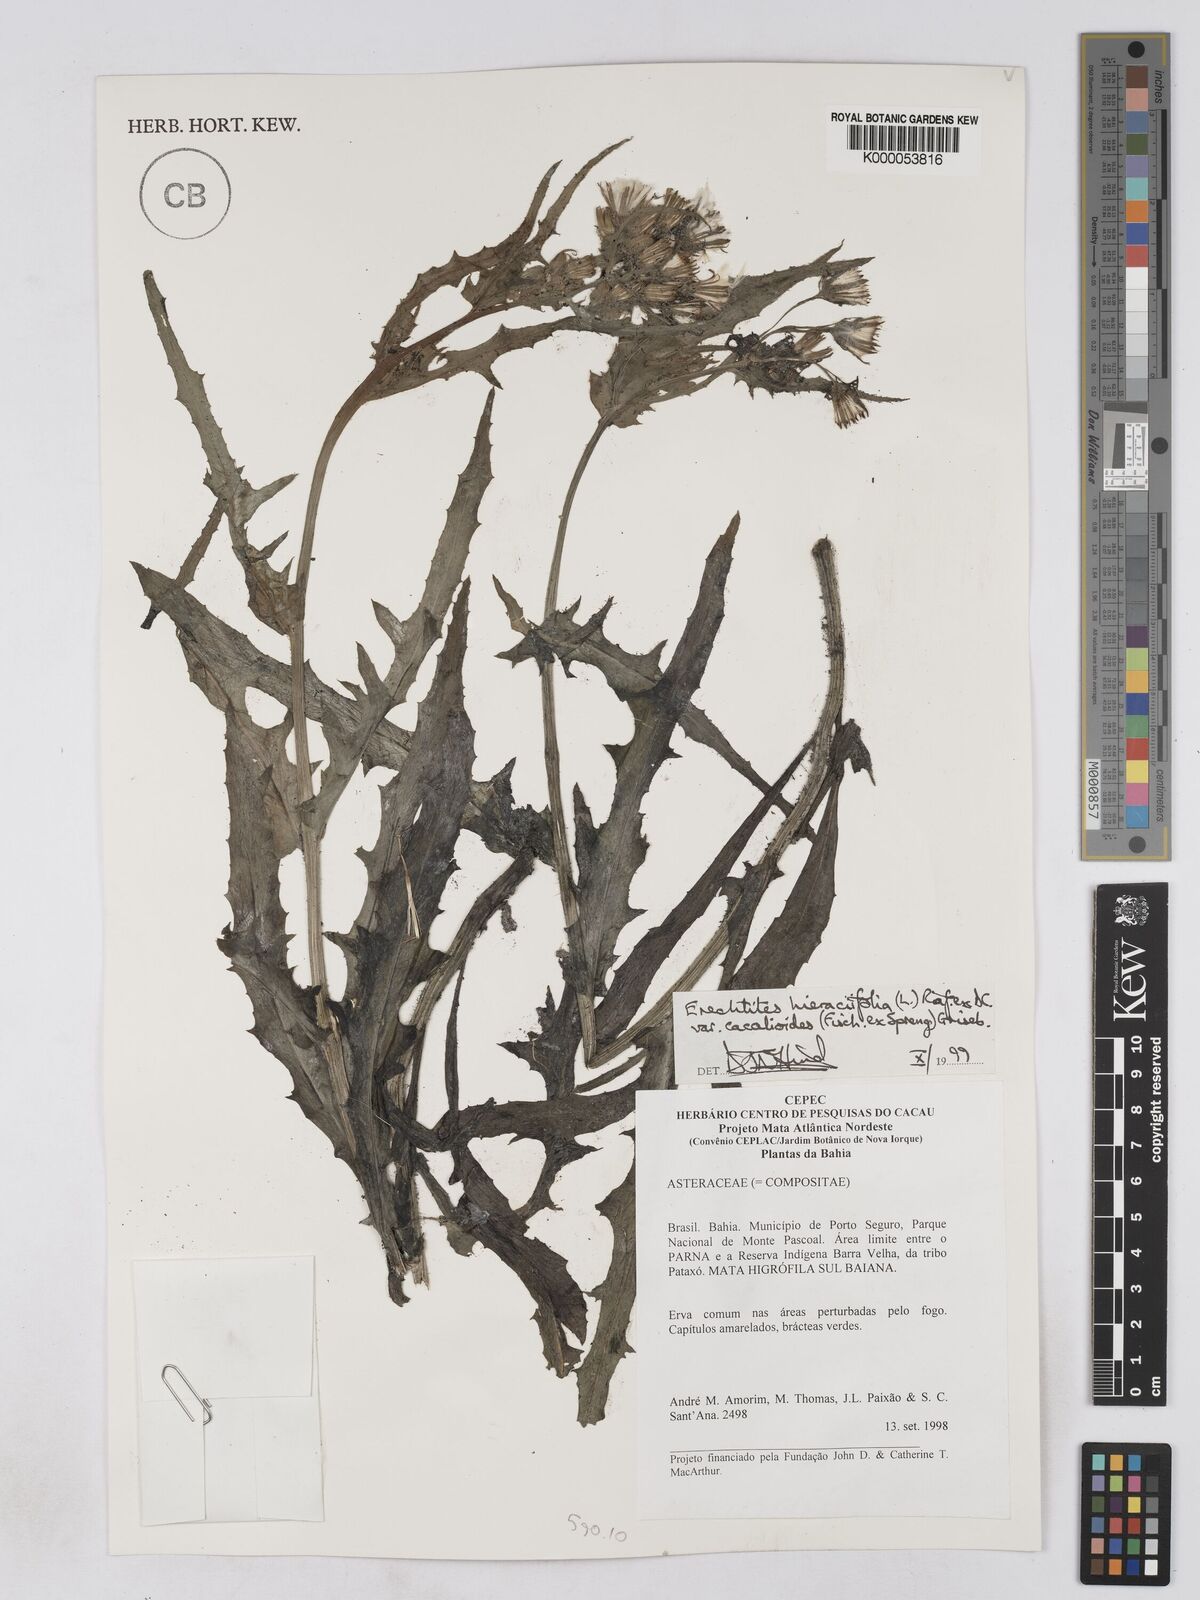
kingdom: Plantae
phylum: Tracheophyta
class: Magnoliopsida
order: Asterales
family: Asteraceae
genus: Erechtites
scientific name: Erechtites hieraciifolius
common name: American burnweed
